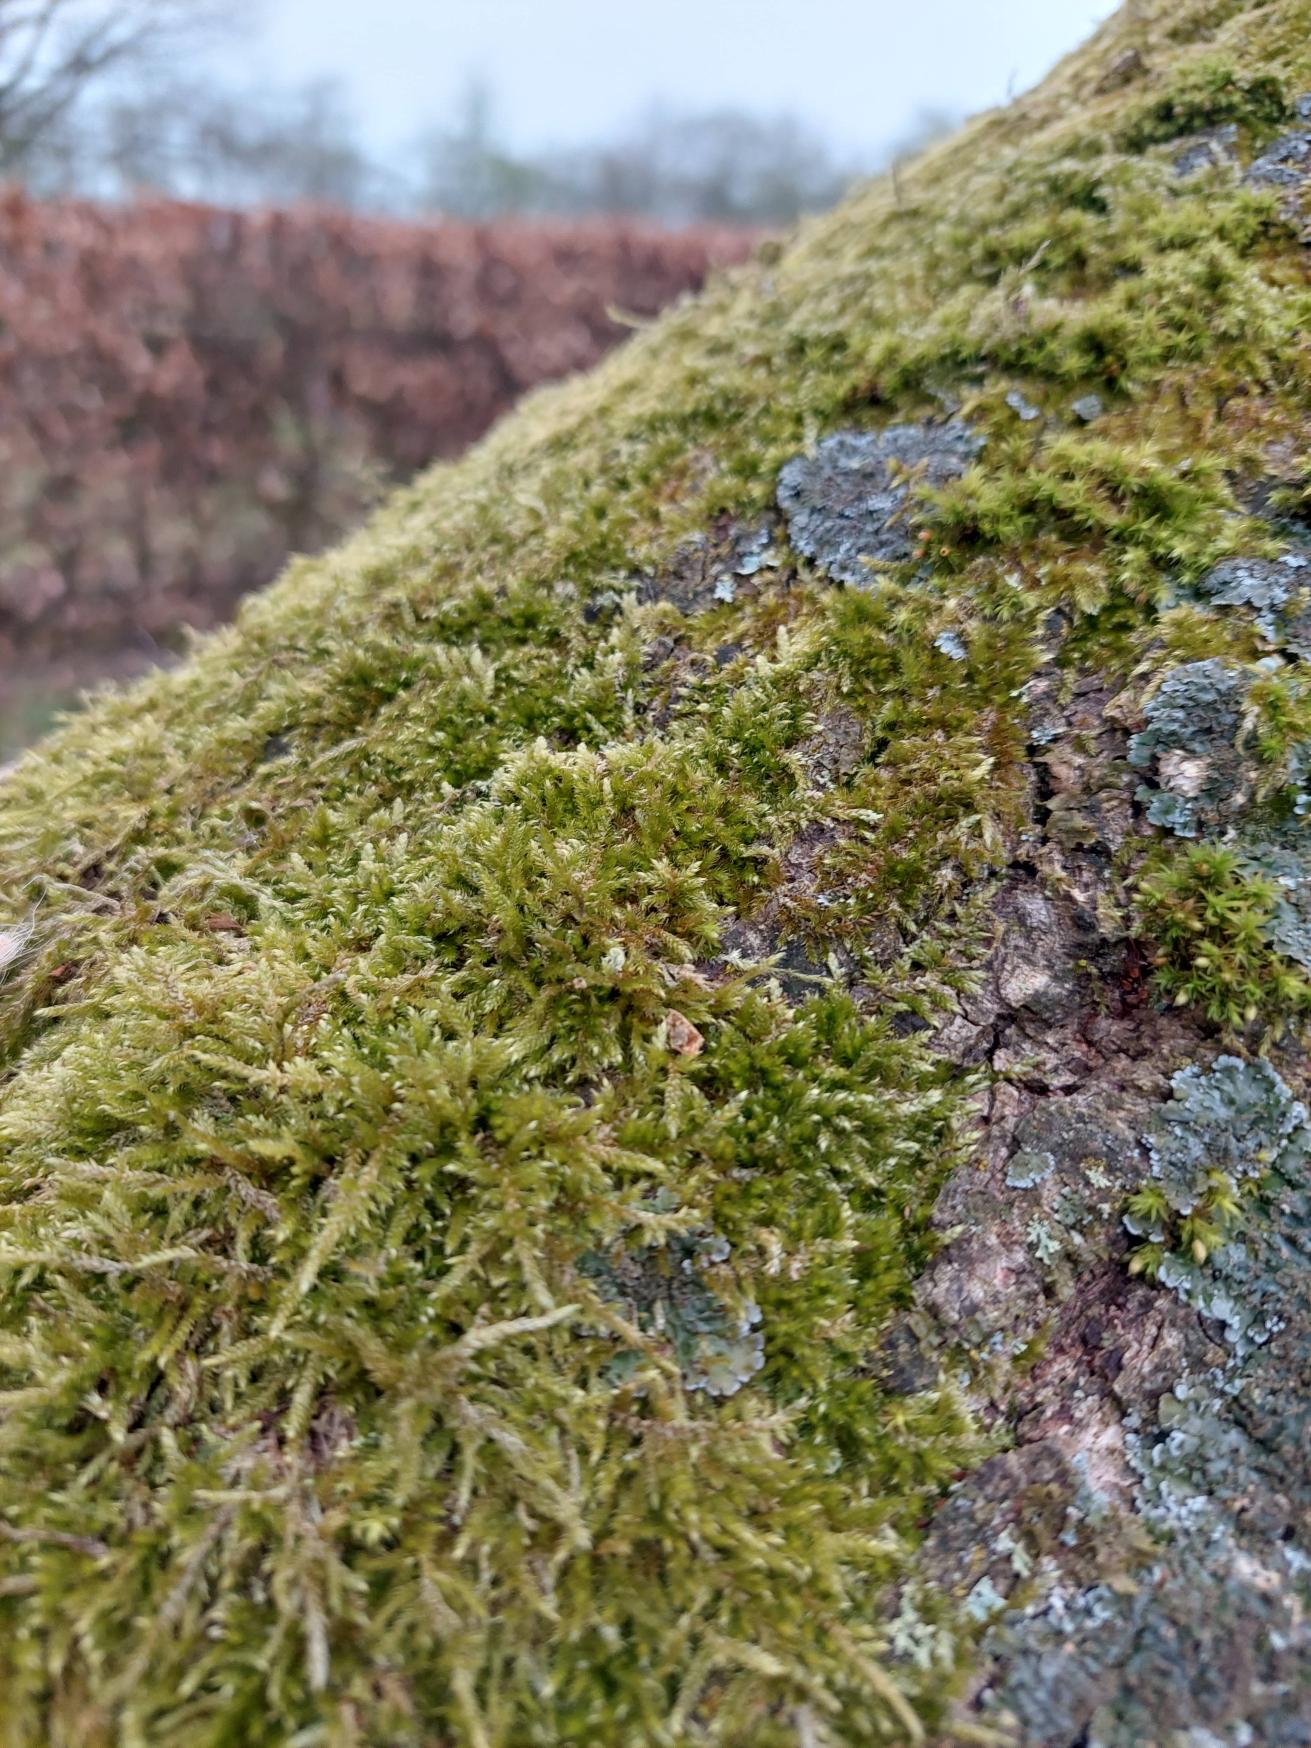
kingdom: Plantae
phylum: Bryophyta
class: Bryopsida
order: Hypnales
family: Hypnaceae
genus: Hypnum
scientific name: Hypnum cupressiforme
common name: Almindelig cypresmos
